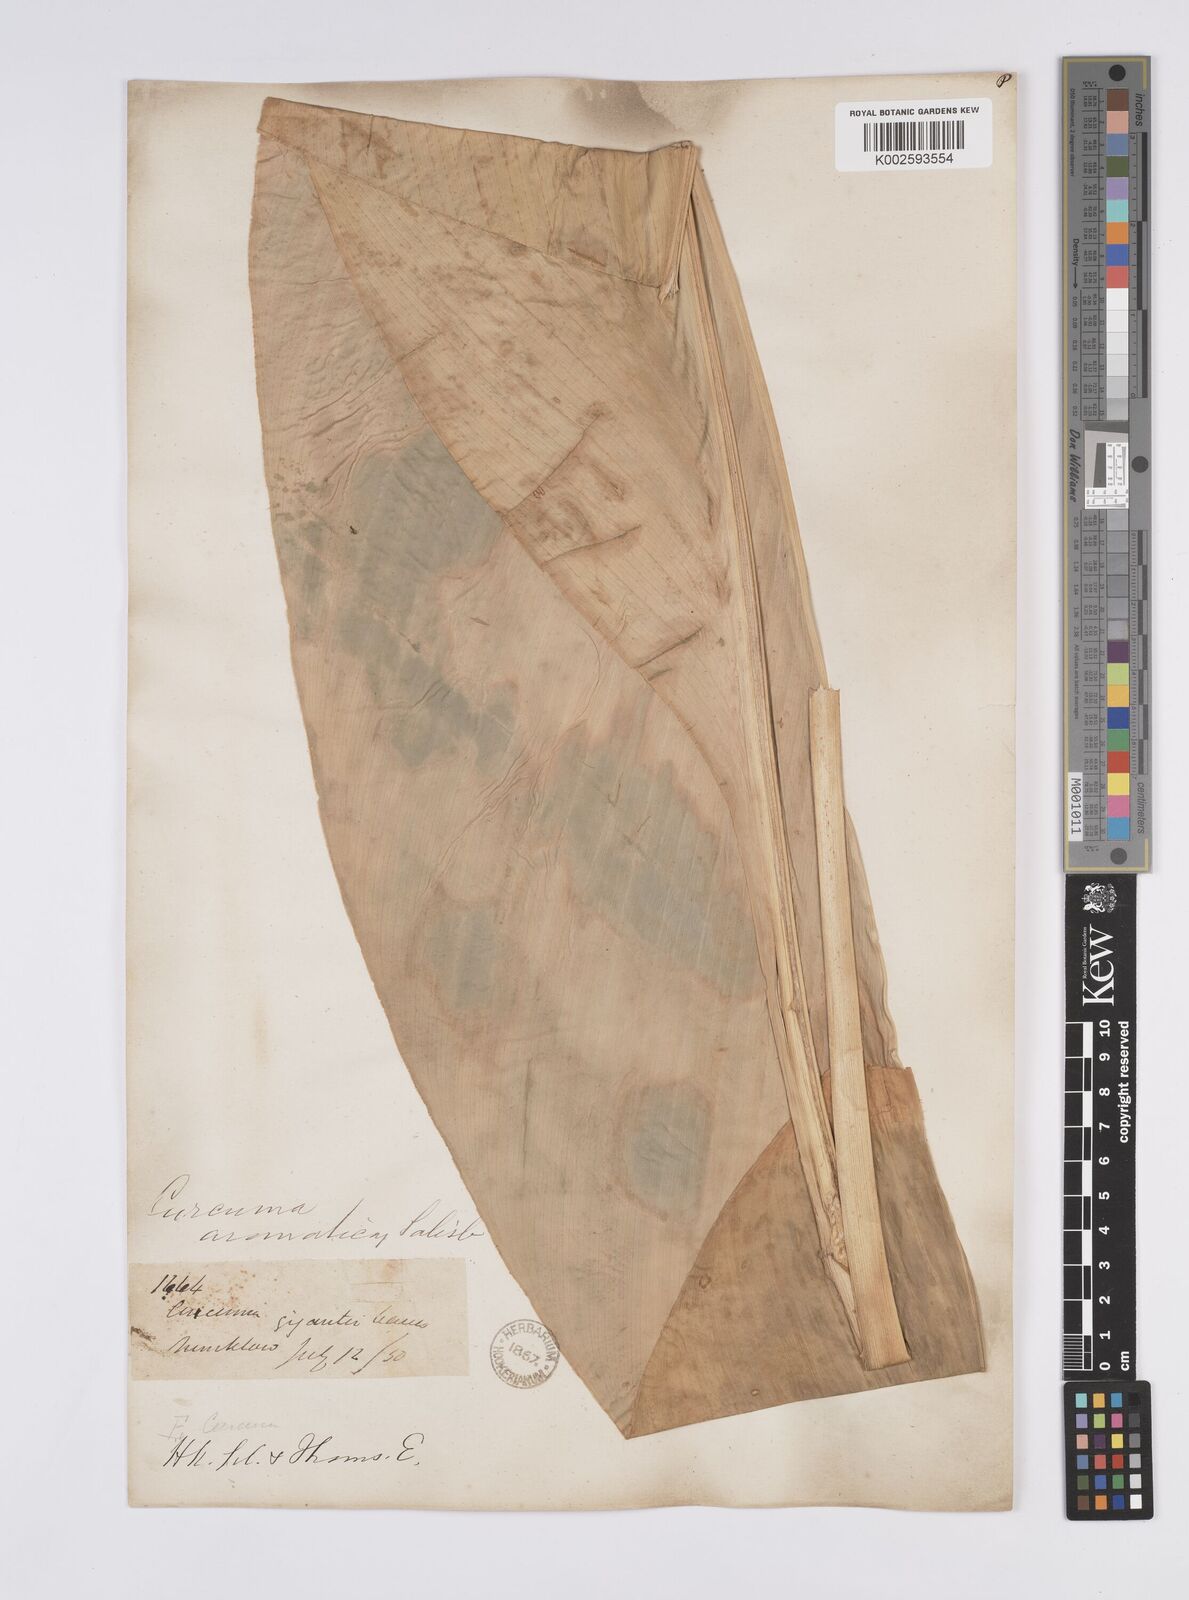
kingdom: Plantae
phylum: Tracheophyta
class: Liliopsida
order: Zingiberales
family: Zingiberaceae
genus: Curcuma
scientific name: Curcuma aromatica
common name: Wild turmeric
